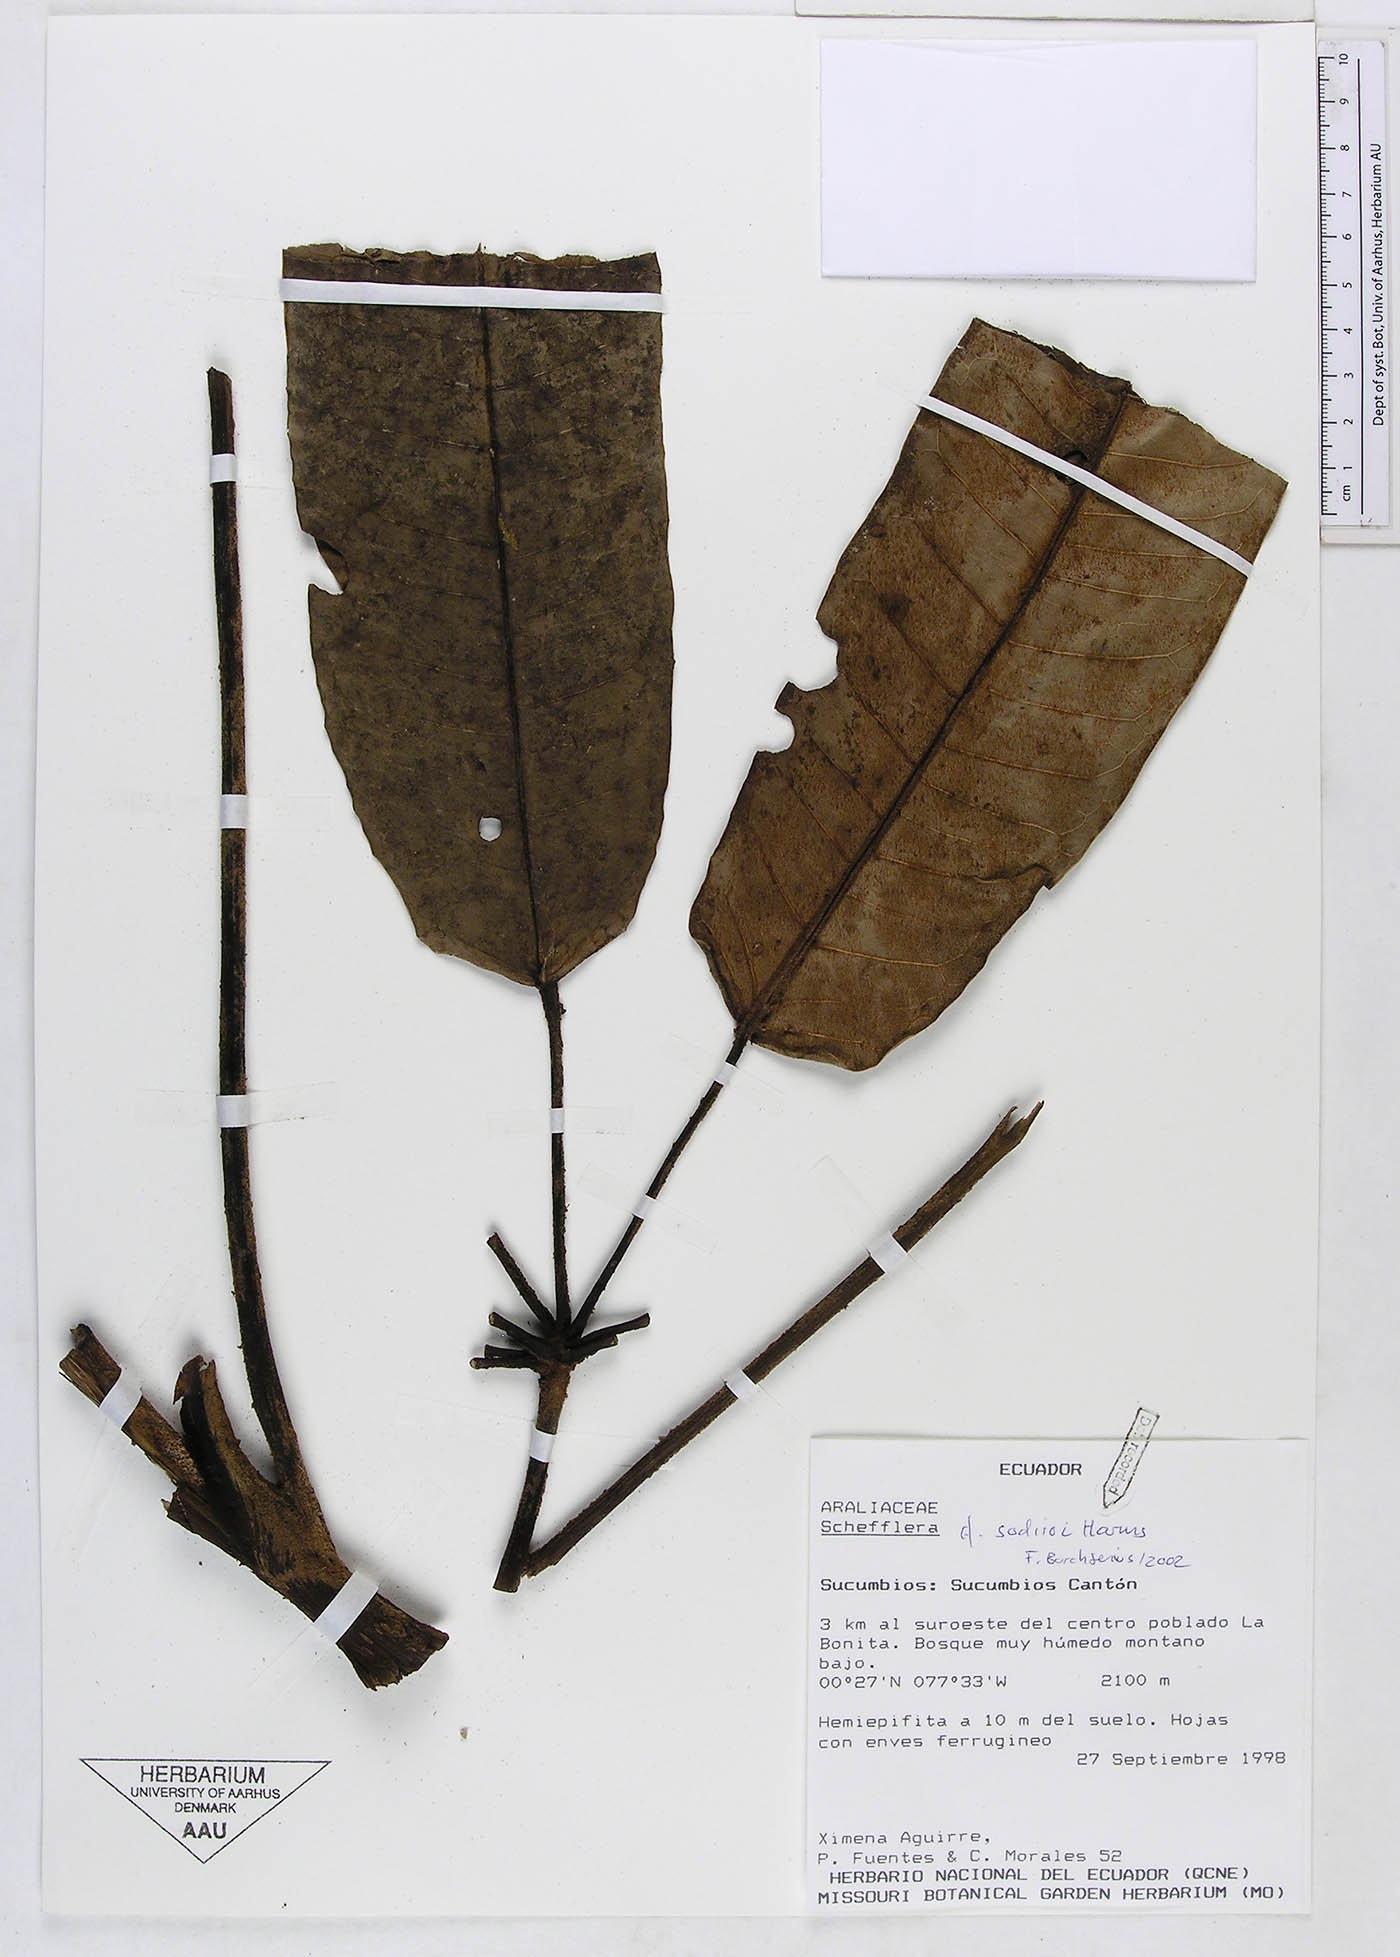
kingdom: Plantae
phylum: Tracheophyta
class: Magnoliopsida
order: Apiales
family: Araliaceae
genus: Sciodaphyllum
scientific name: Sciodaphyllum sodiroi
